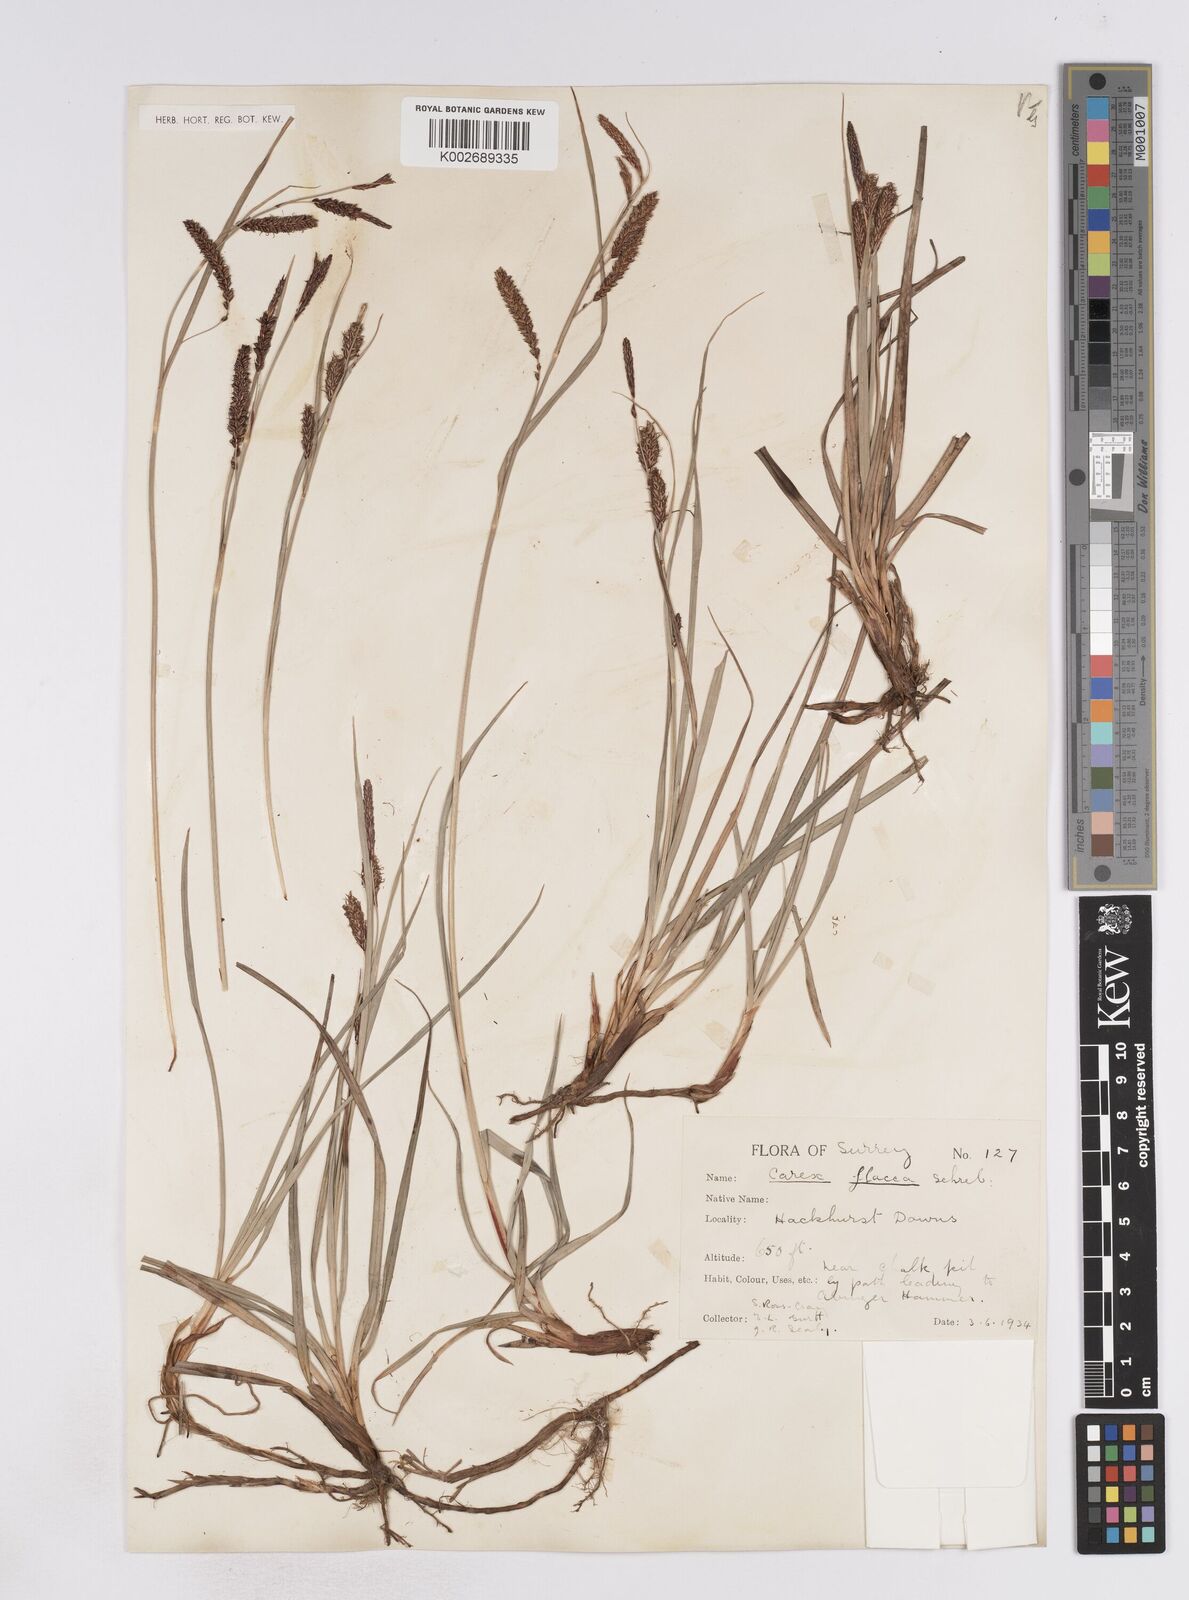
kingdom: Plantae
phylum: Tracheophyta
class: Liliopsida
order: Poales
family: Cyperaceae
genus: Carex
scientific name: Carex flacca
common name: Glaucous sedge
